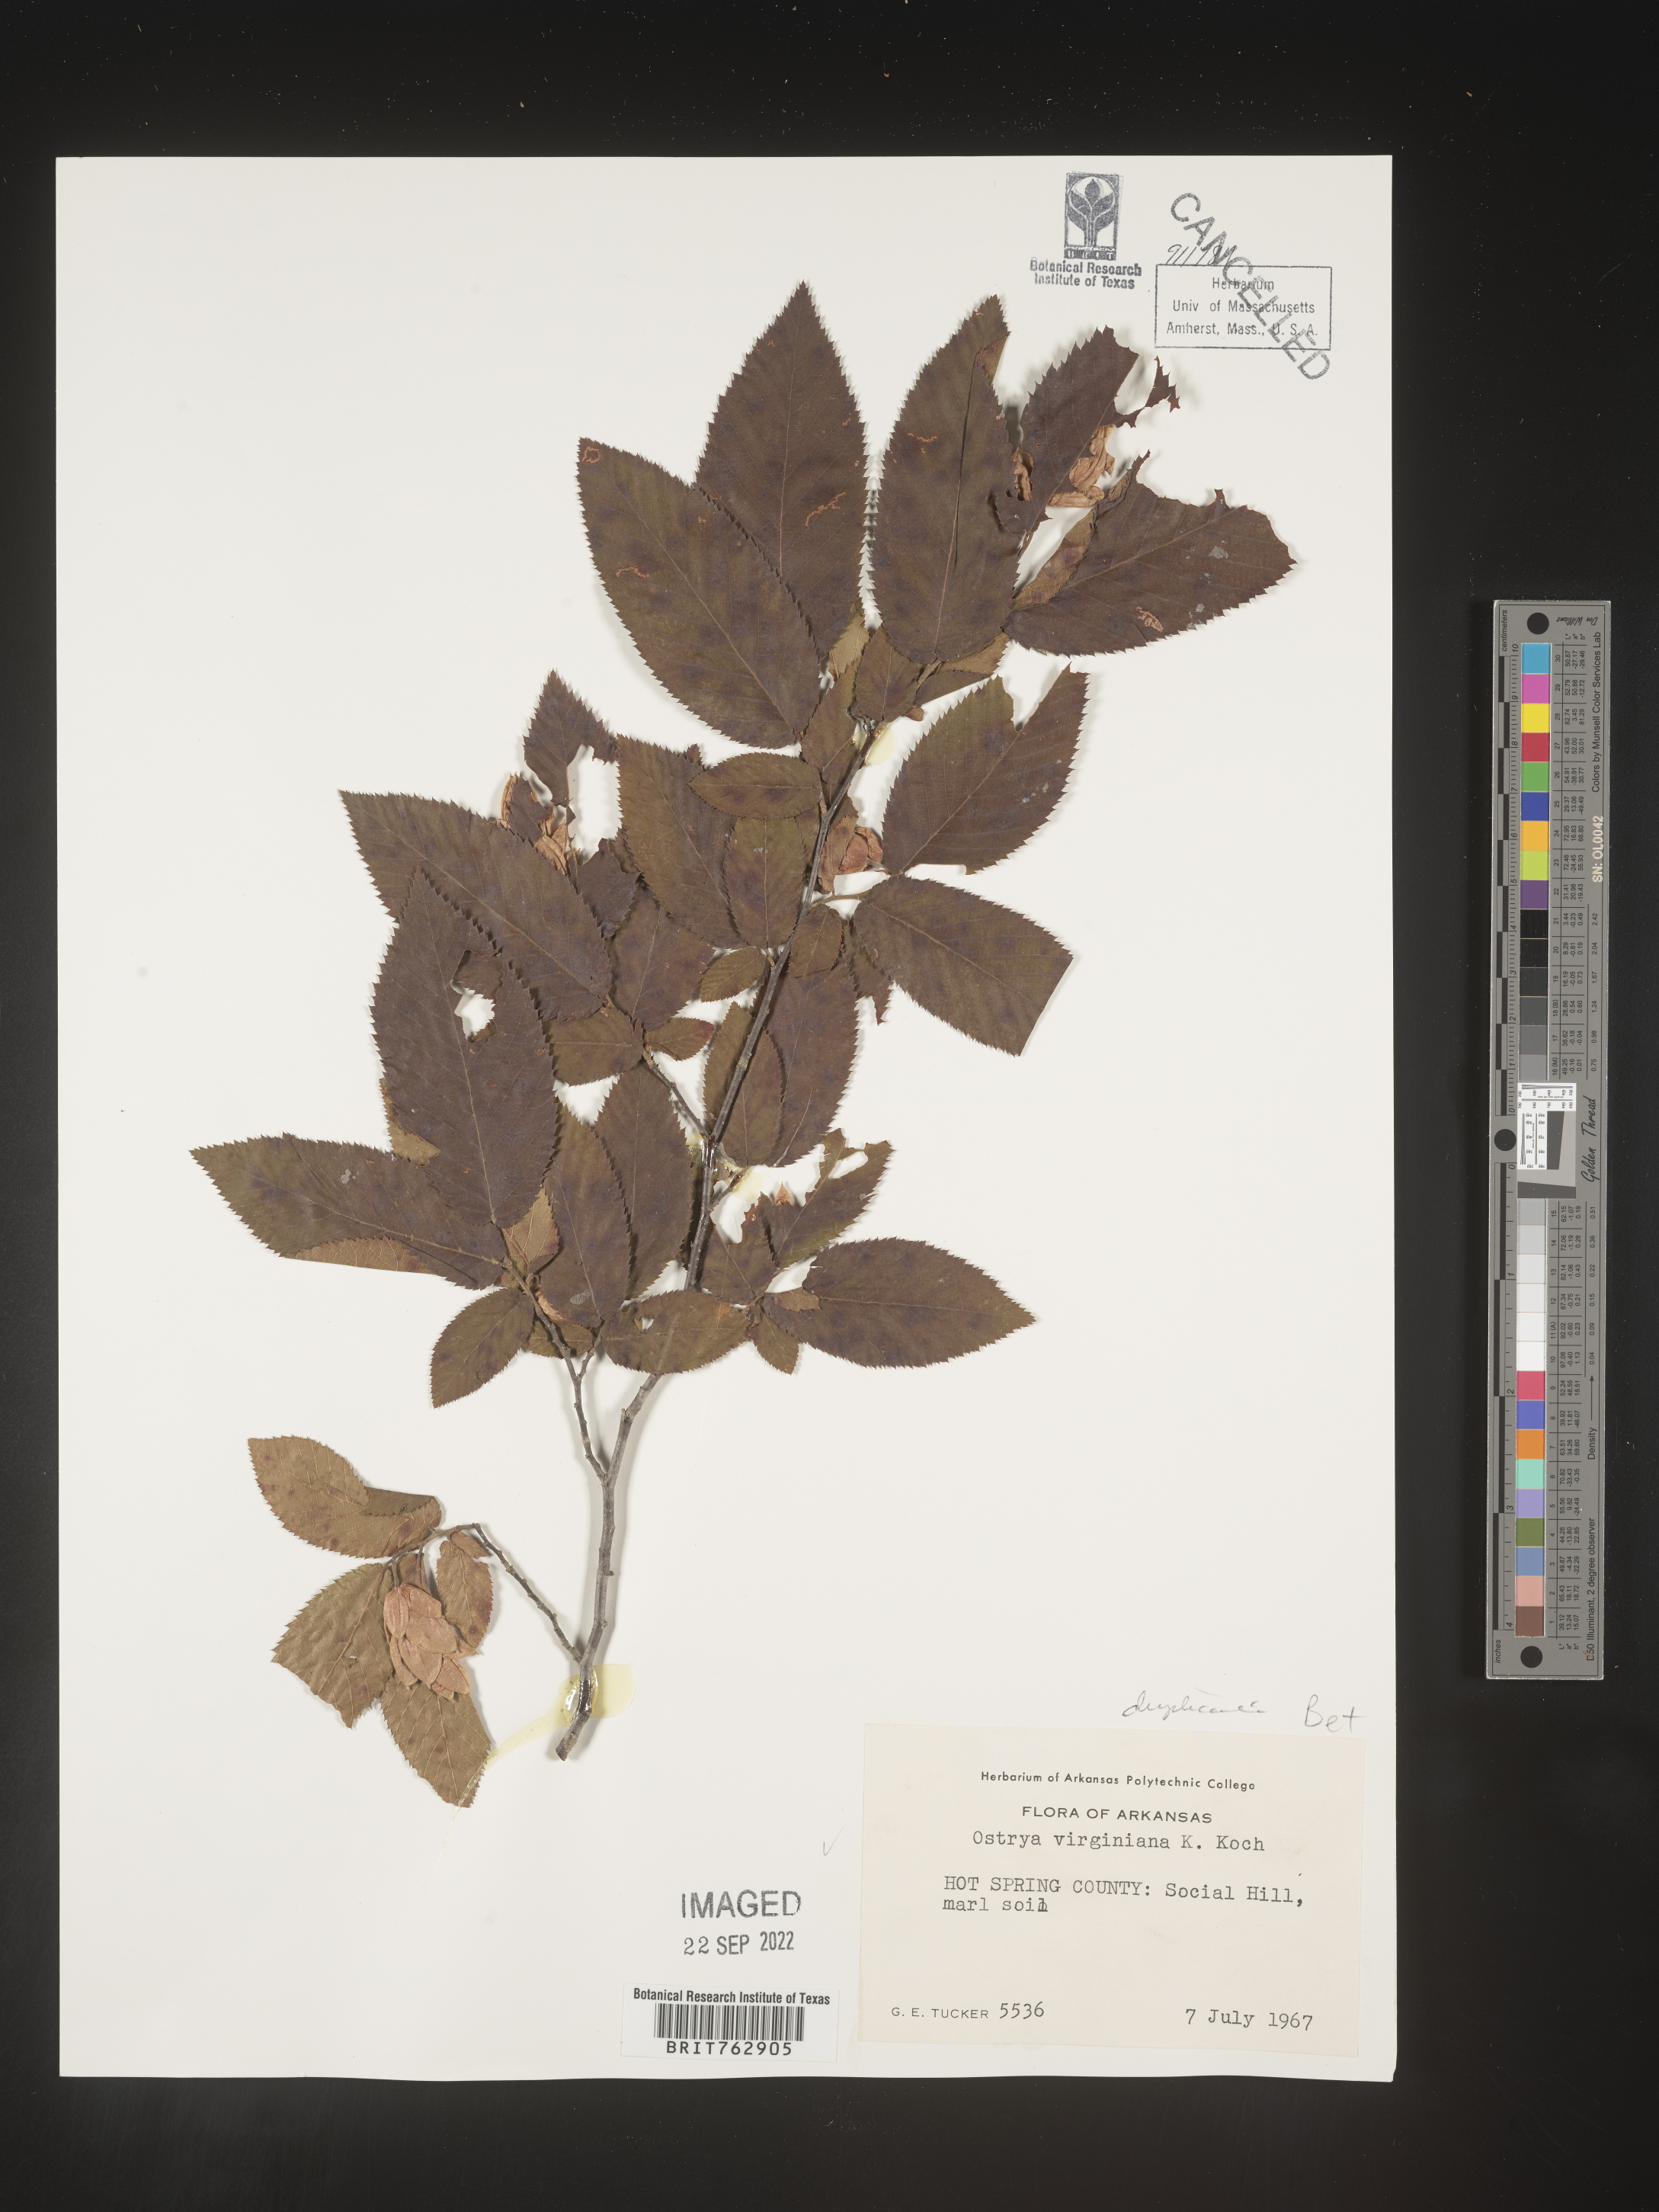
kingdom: Plantae
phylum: Tracheophyta
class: Magnoliopsida
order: Fagales
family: Betulaceae
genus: Ostrya
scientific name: Ostrya virginiana
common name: Ironwood
